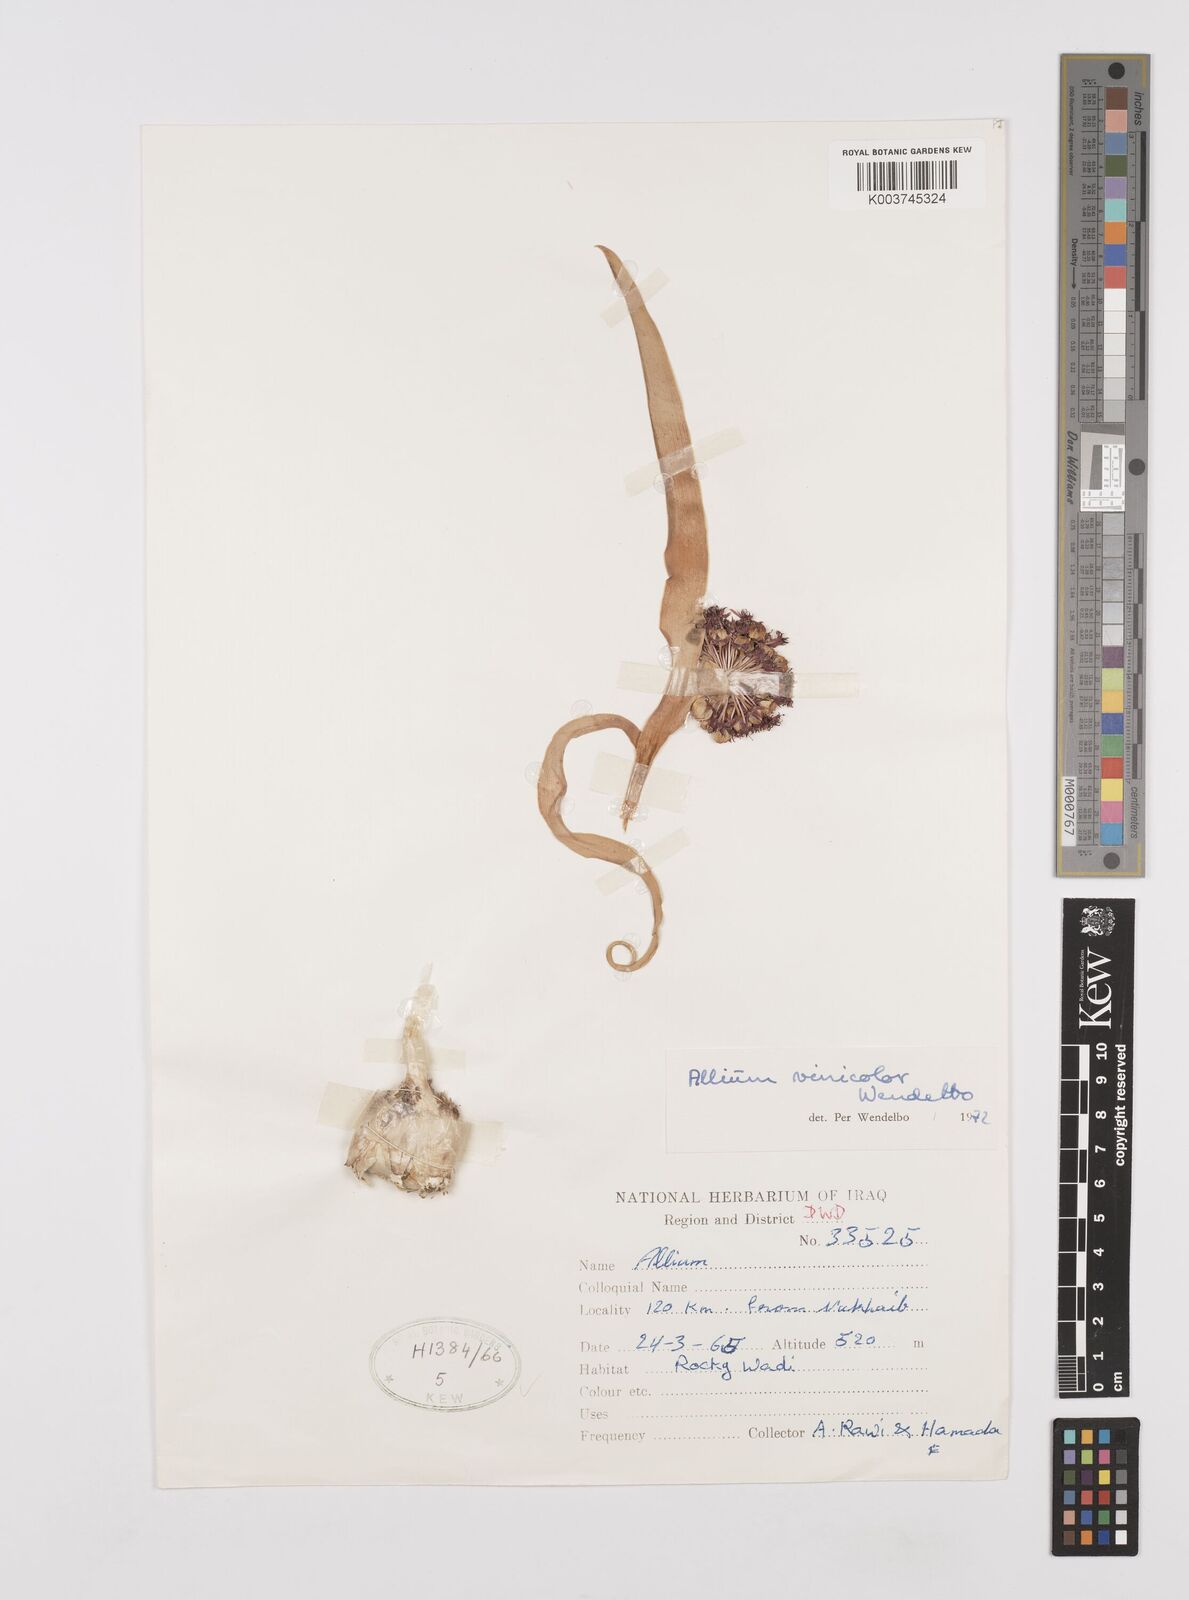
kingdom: Plantae
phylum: Tracheophyta
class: Liliopsida
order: Asparagales
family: Amaryllidaceae
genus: Allium
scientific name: Allium vinicolor
